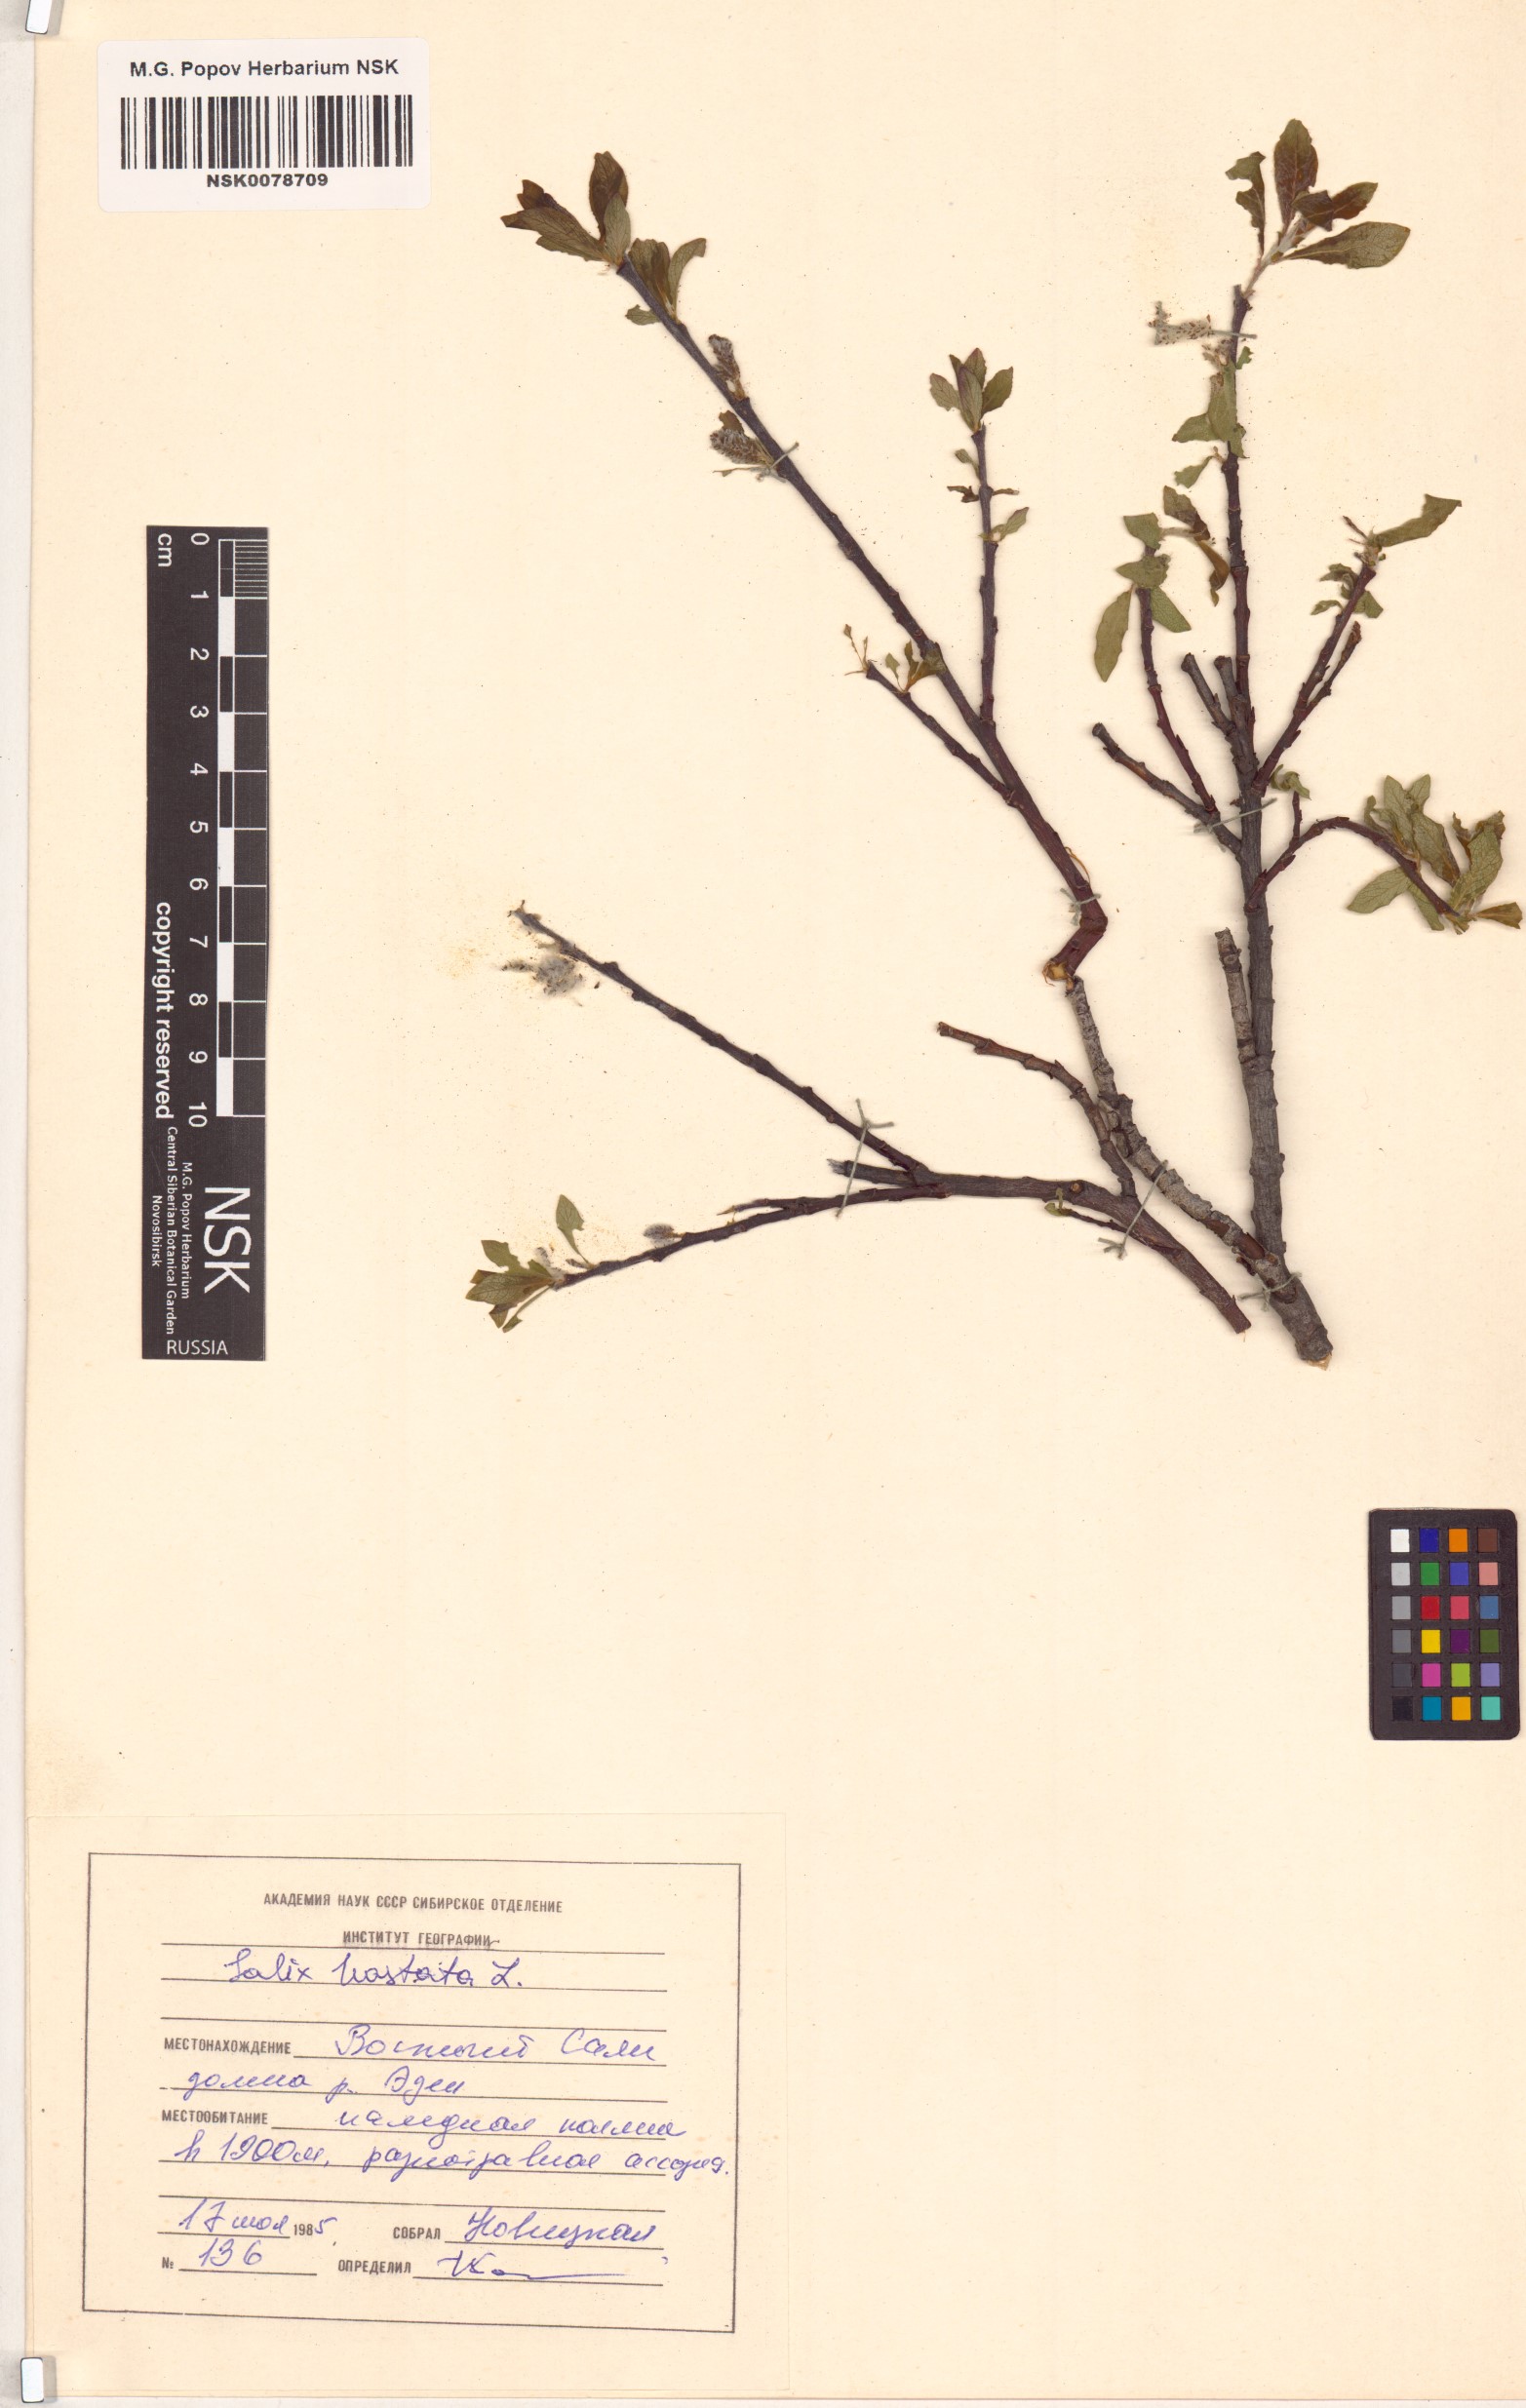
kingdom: Plantae
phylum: Tracheophyta
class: Magnoliopsida
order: Malpighiales
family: Salicaceae
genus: Salix
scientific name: Salix hastata
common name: Halberd willow
